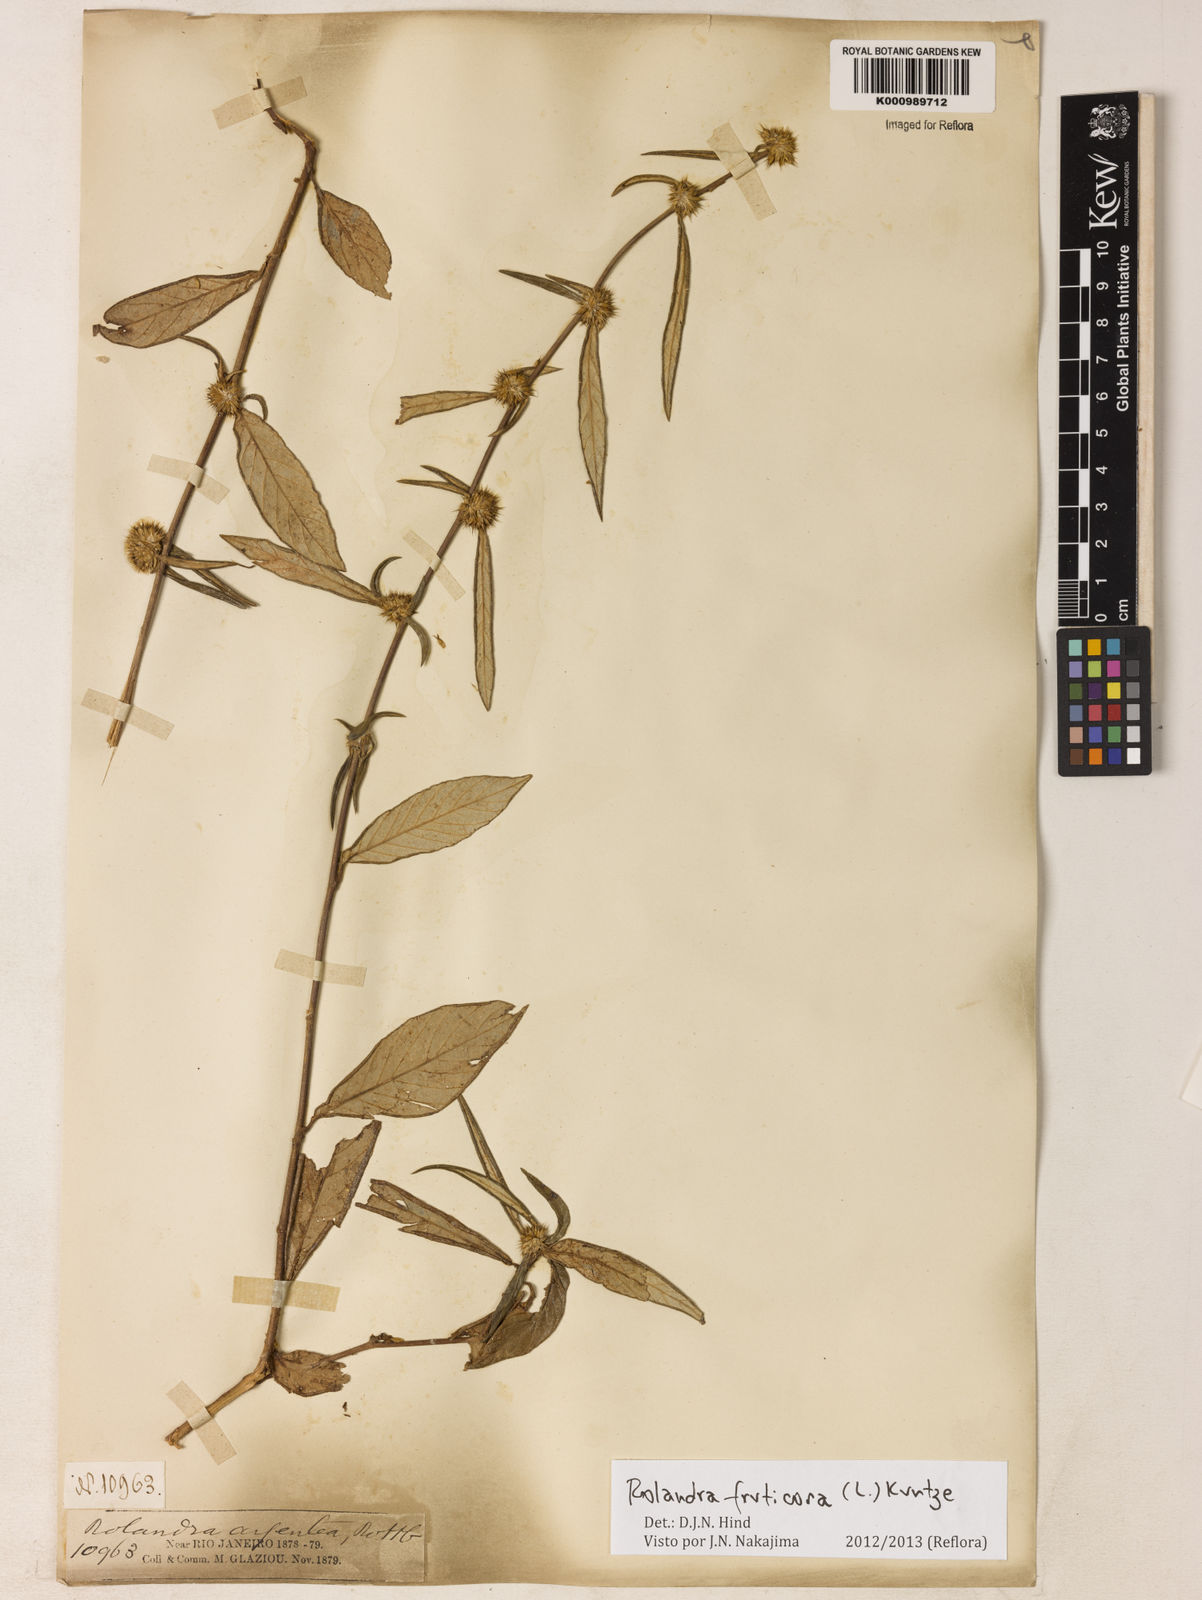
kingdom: Plantae
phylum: Tracheophyta
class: Magnoliopsida
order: Asterales
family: Asteraceae
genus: Rolandra
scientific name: Rolandra fruticosa
